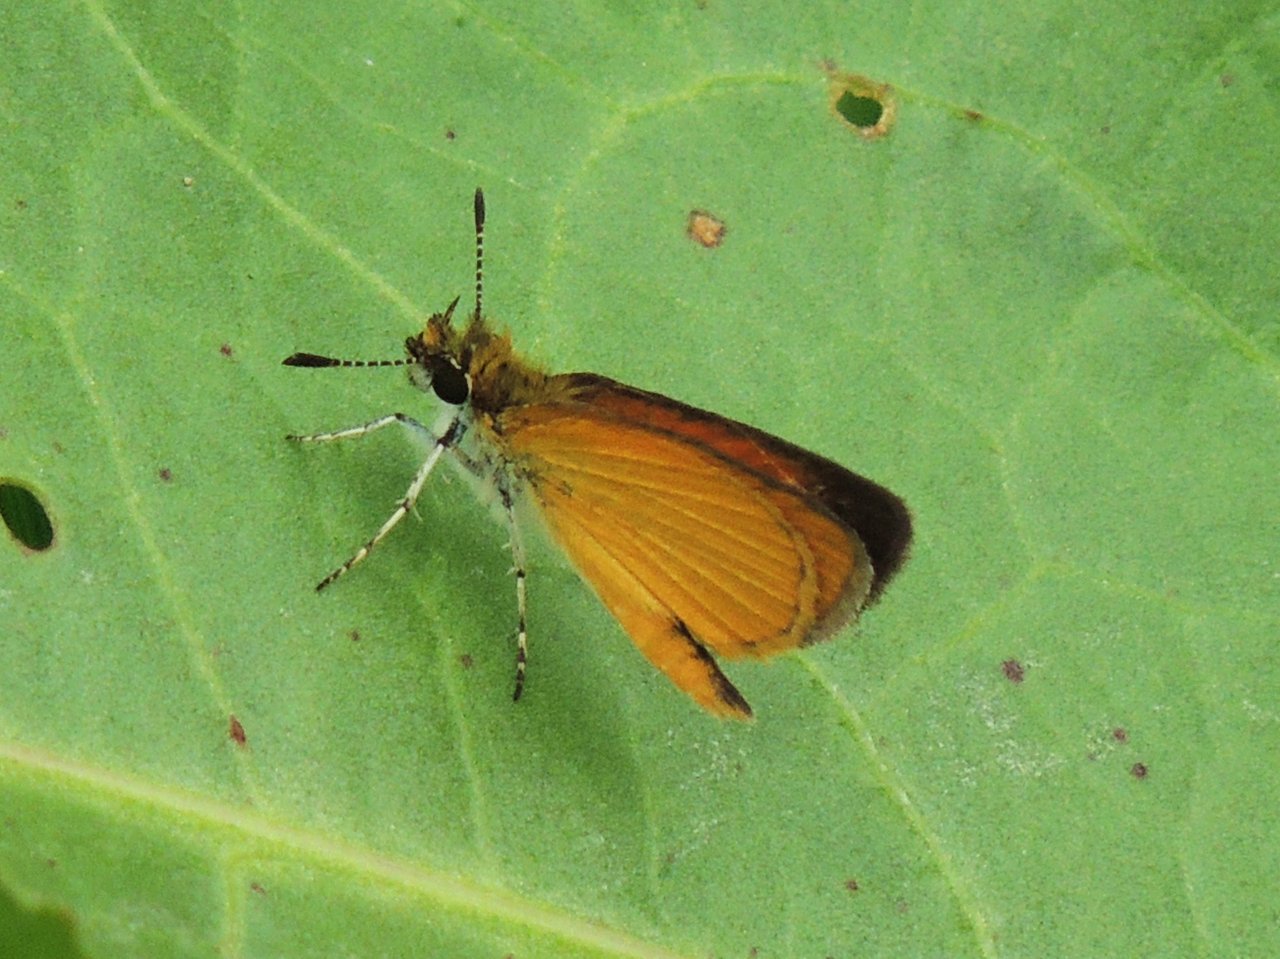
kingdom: Animalia
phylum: Arthropoda
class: Insecta
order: Lepidoptera
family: Hesperiidae
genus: Ancyloxypha
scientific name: Ancyloxypha numitor
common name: Least Skipper
